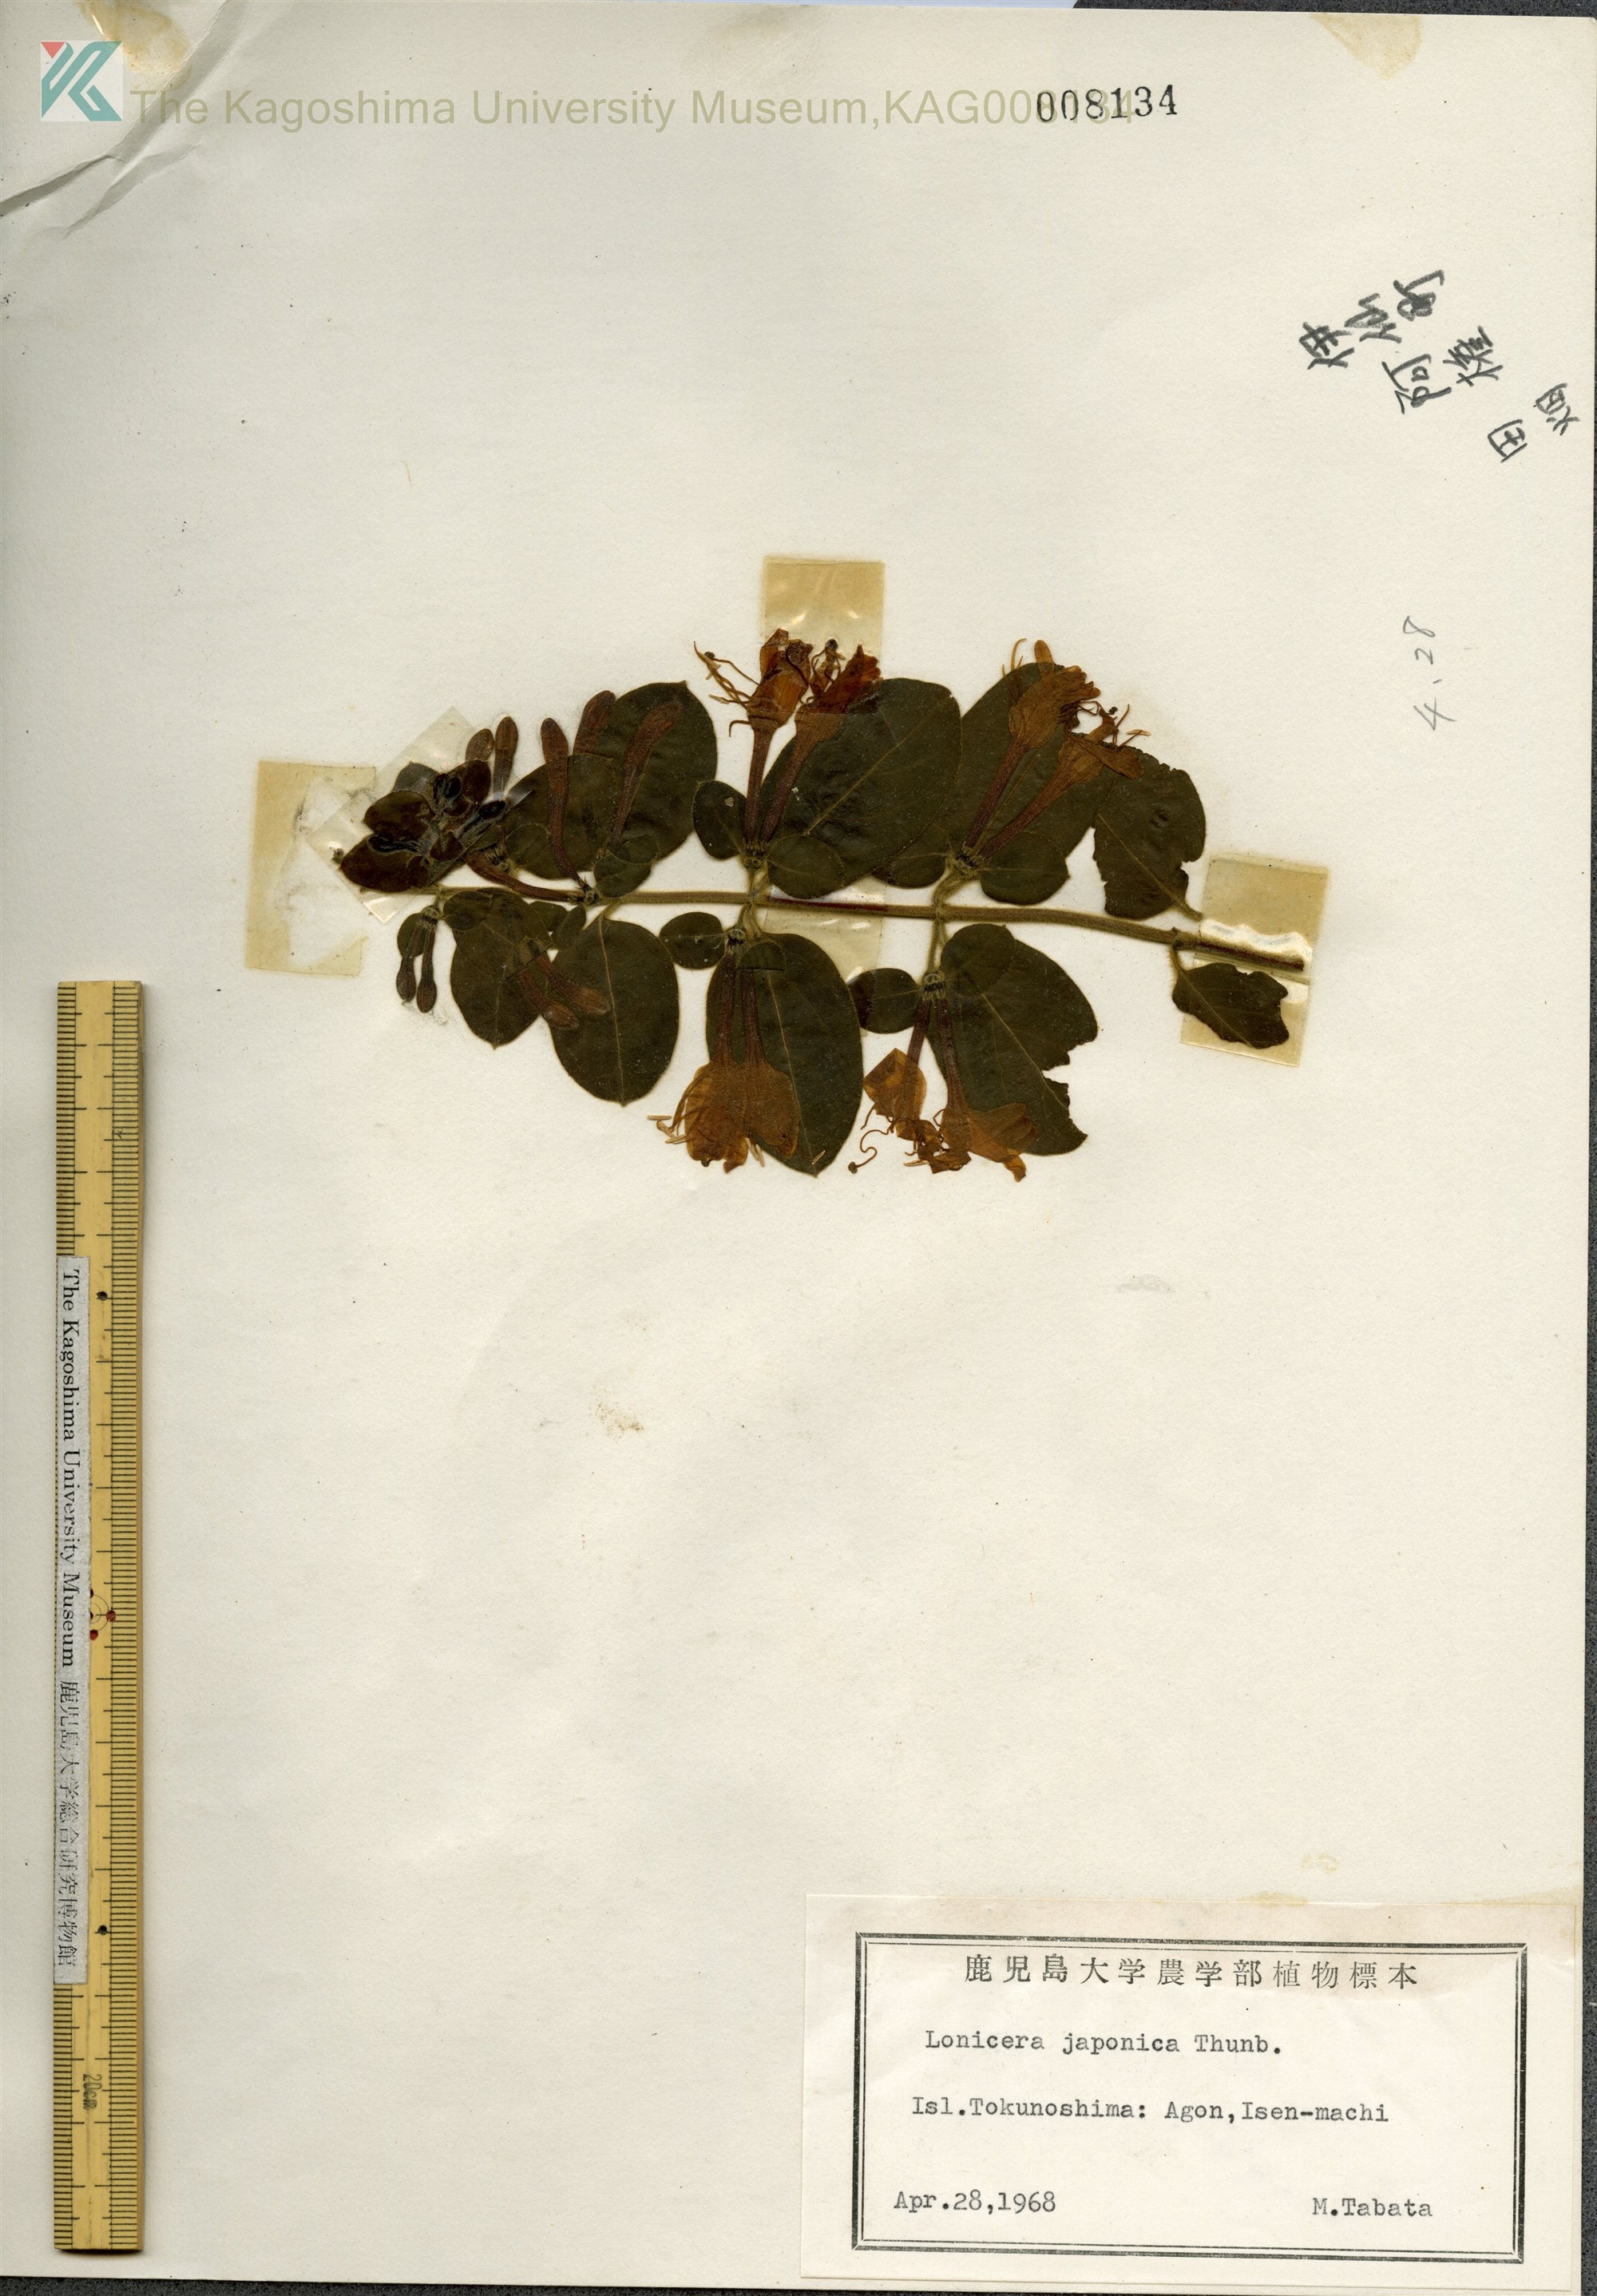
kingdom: Plantae
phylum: Tracheophyta
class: Magnoliopsida
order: Dipsacales
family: Caprifoliaceae
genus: Lonicera
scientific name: Lonicera japonica
